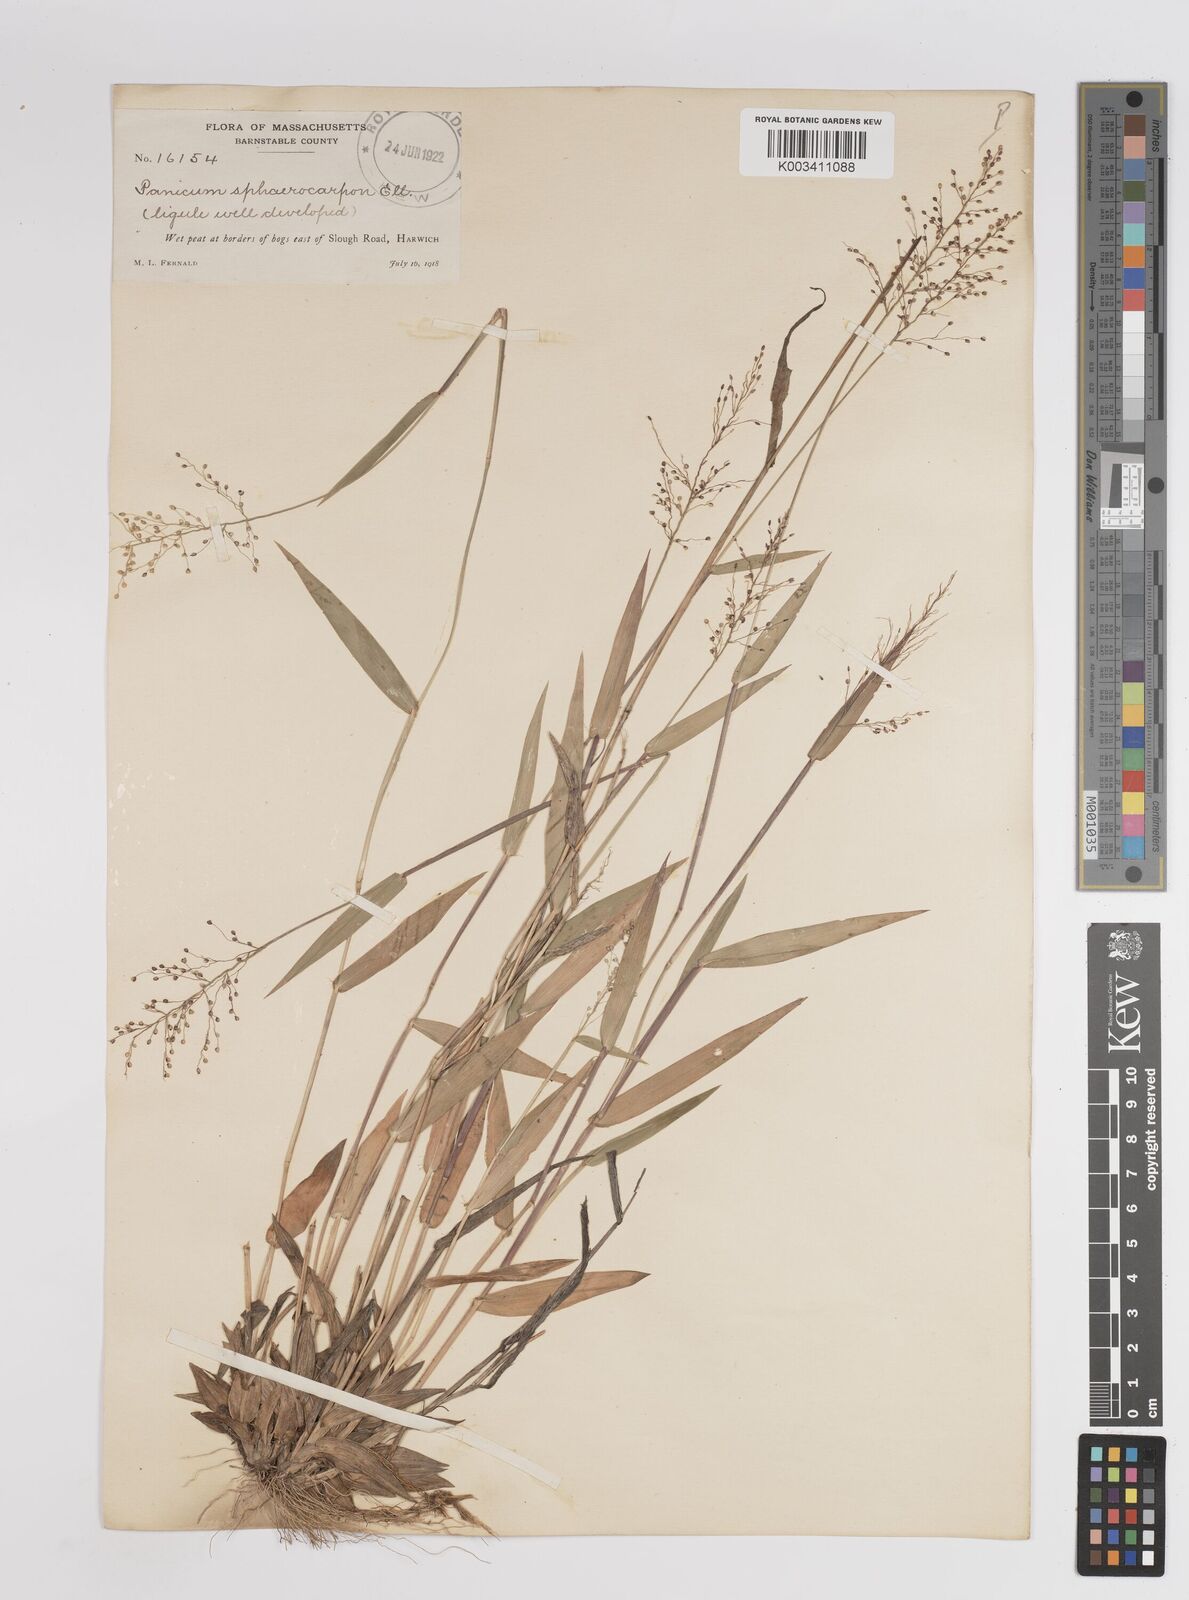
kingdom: Plantae
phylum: Tracheophyta
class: Liliopsida
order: Poales
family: Poaceae
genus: Dichanthelium
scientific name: Dichanthelium sphaerocarpon
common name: Round-fruited panicgrass
